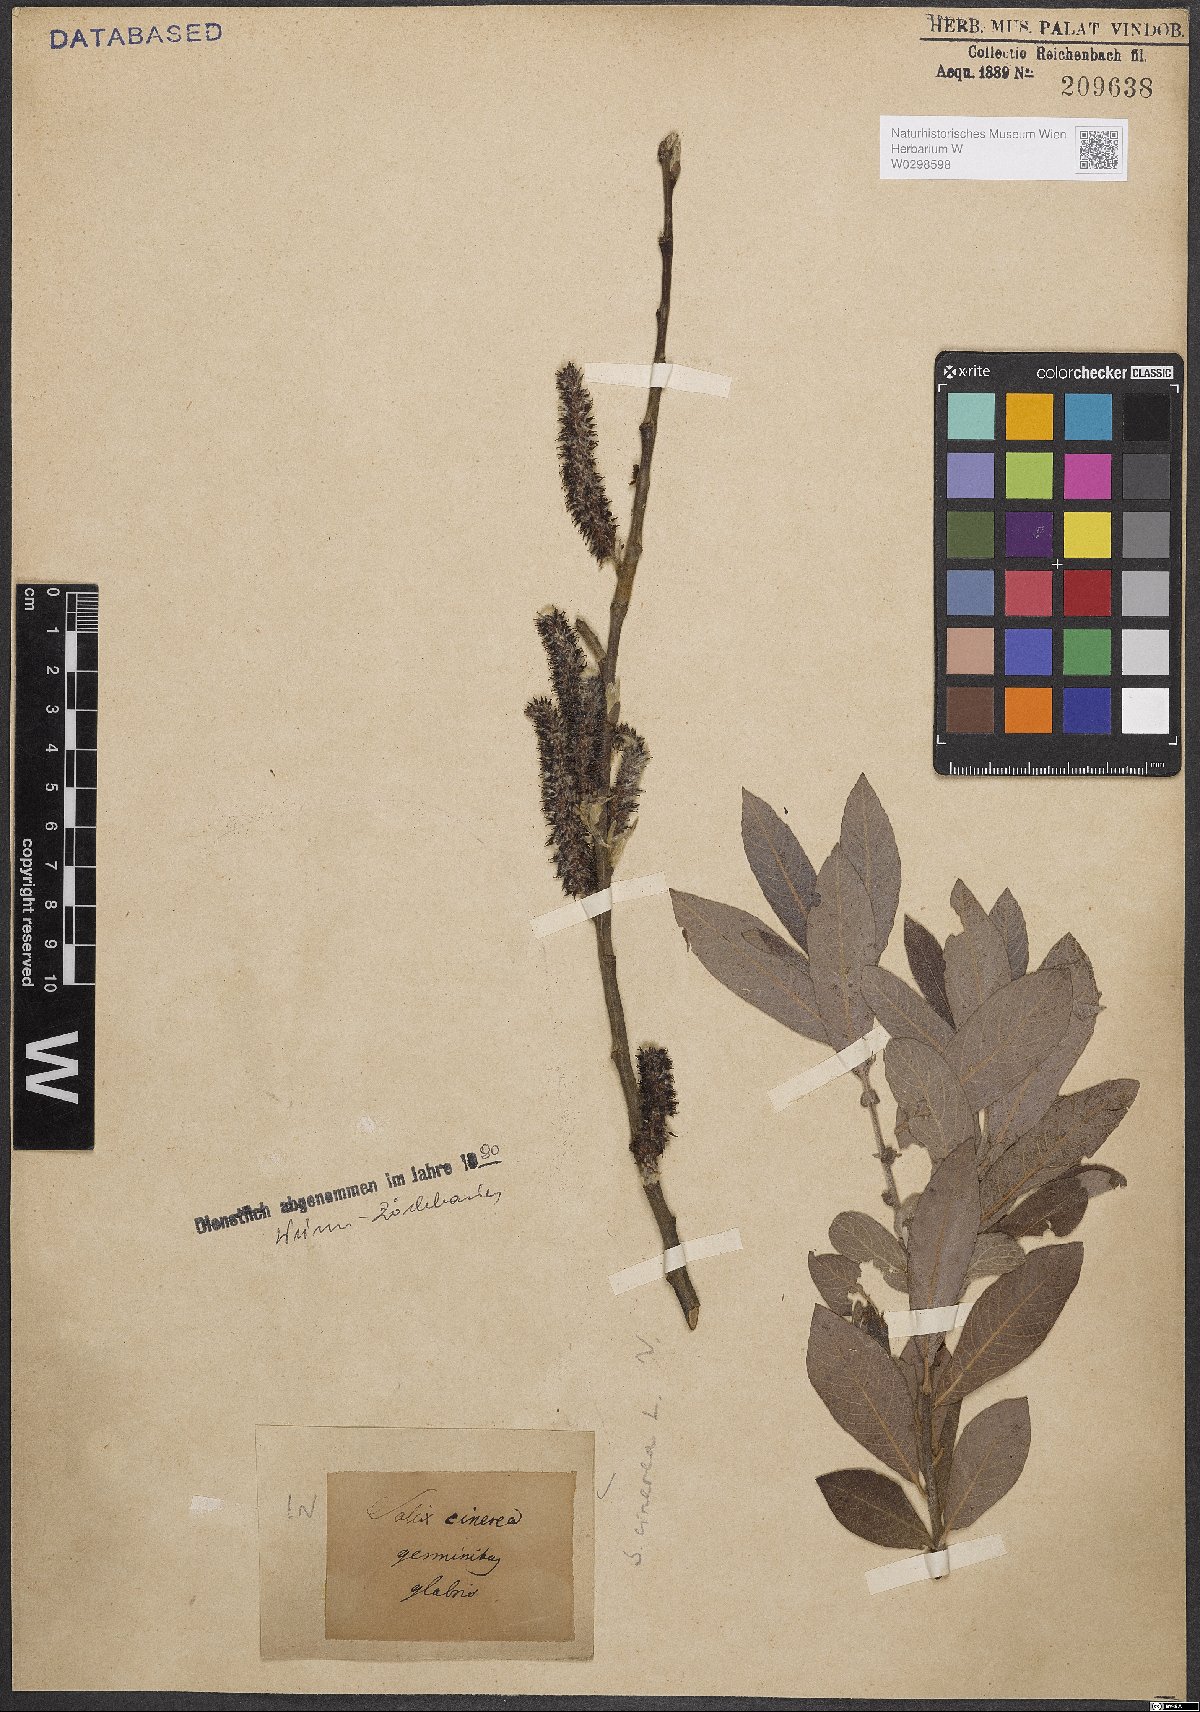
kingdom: Plantae
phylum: Tracheophyta
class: Magnoliopsida
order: Malpighiales
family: Salicaceae
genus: Salix
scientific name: Salix cinerea
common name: Common sallow
